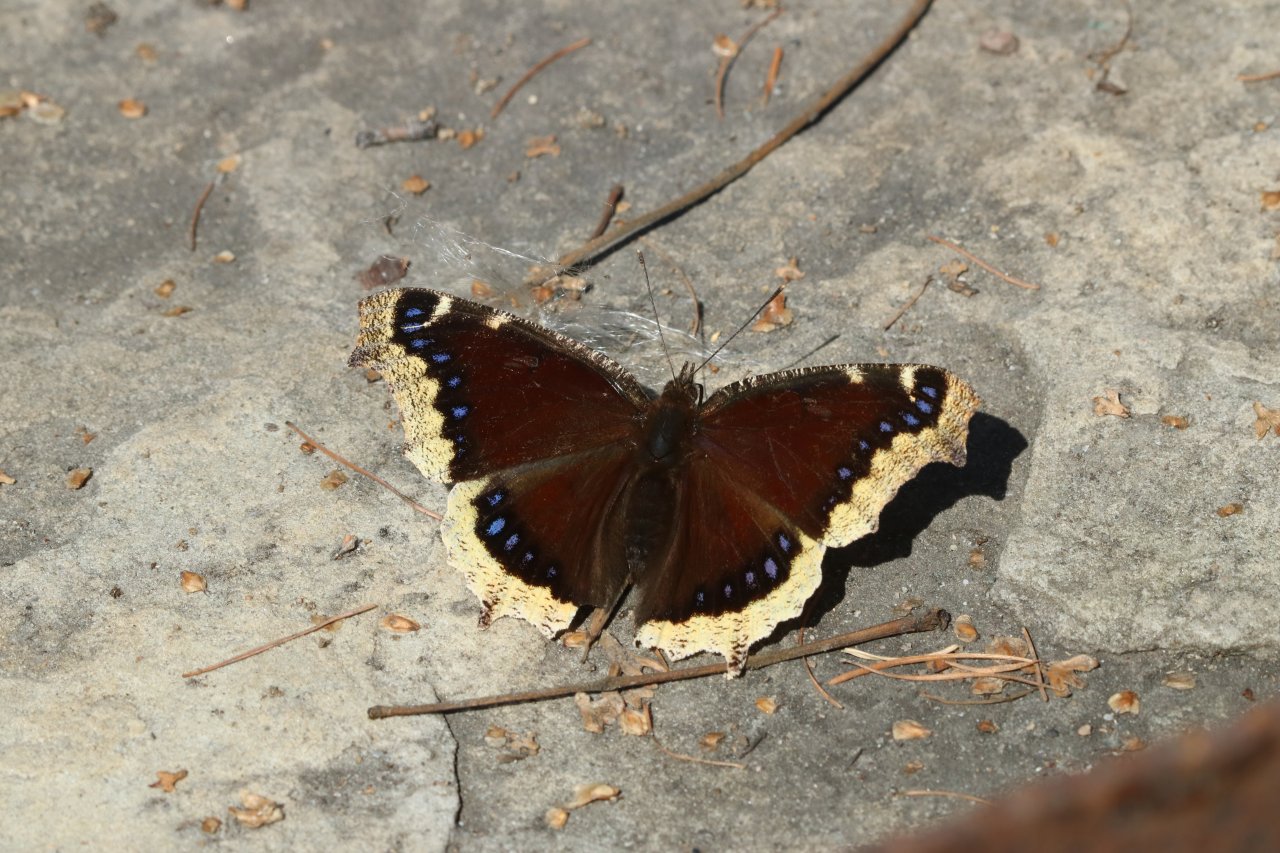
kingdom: Animalia
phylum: Arthropoda
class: Insecta
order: Lepidoptera
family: Nymphalidae
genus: Nymphalis
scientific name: Nymphalis antiopa
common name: Mourning Cloak
